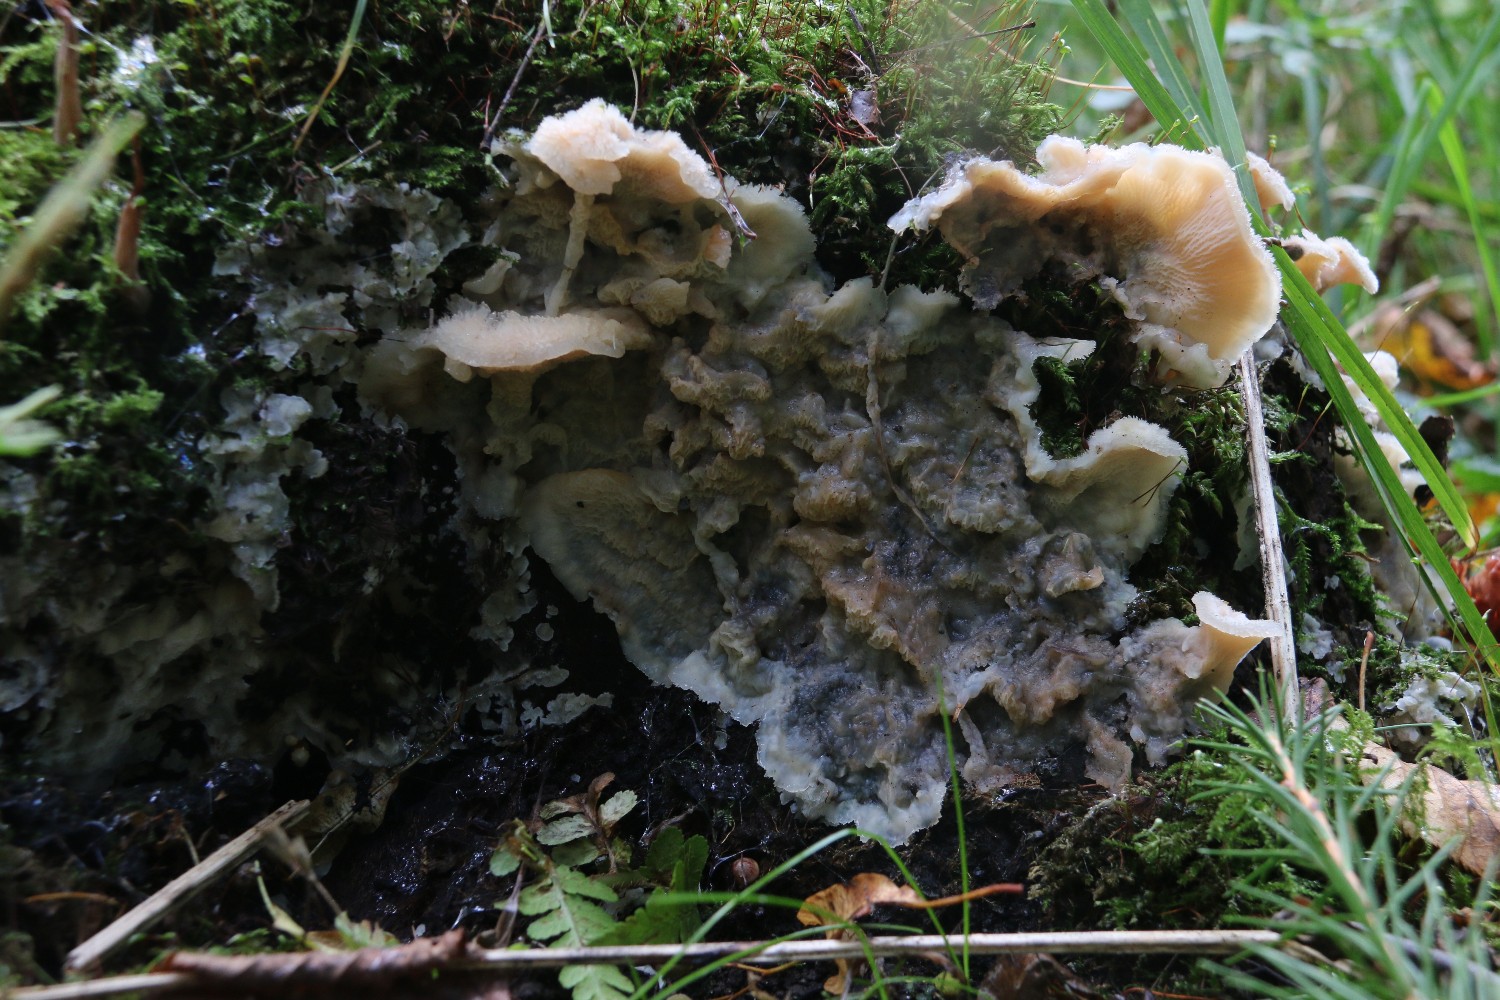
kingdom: Fungi
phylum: Basidiomycota
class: Agaricomycetes
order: Polyporales
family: Meruliaceae
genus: Phlebia
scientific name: Phlebia tremellosa
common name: bævrende åresvamp
